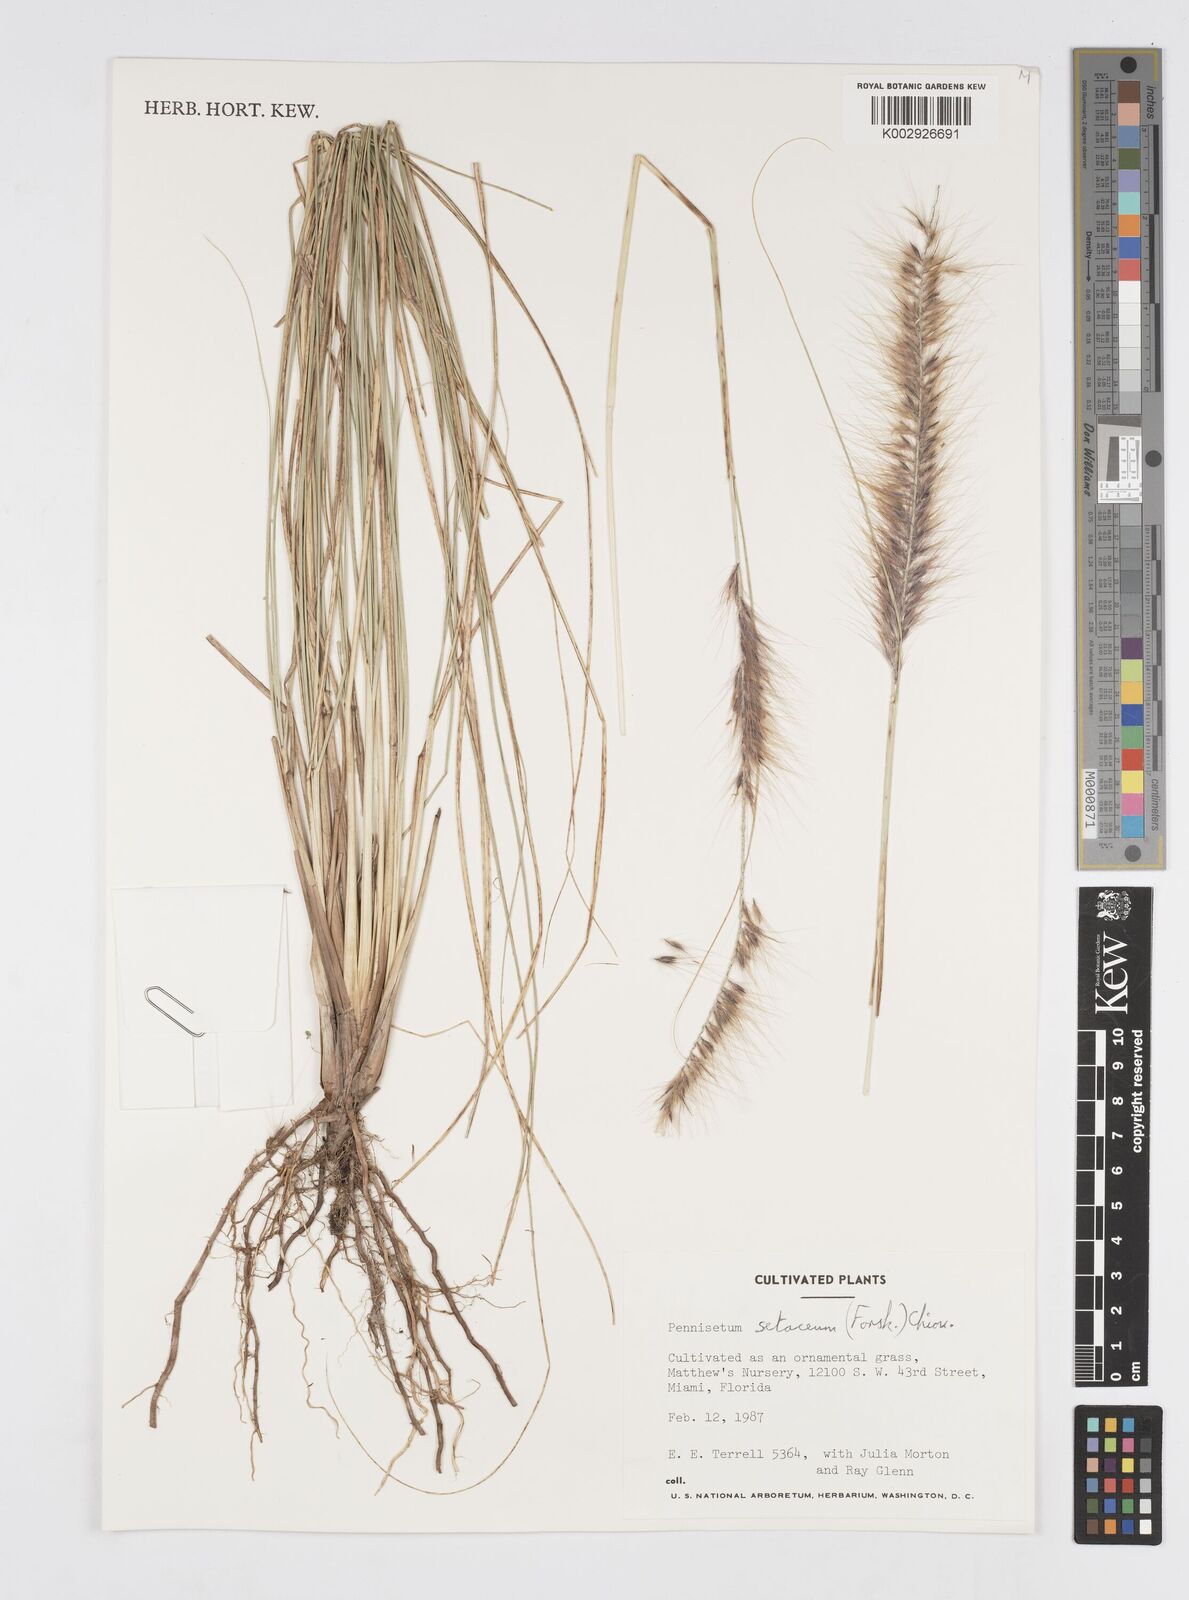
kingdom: Plantae
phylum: Tracheophyta
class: Liliopsida
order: Poales
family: Poaceae
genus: Cenchrus
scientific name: Cenchrus setaceus
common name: Crimson fountaingrass
